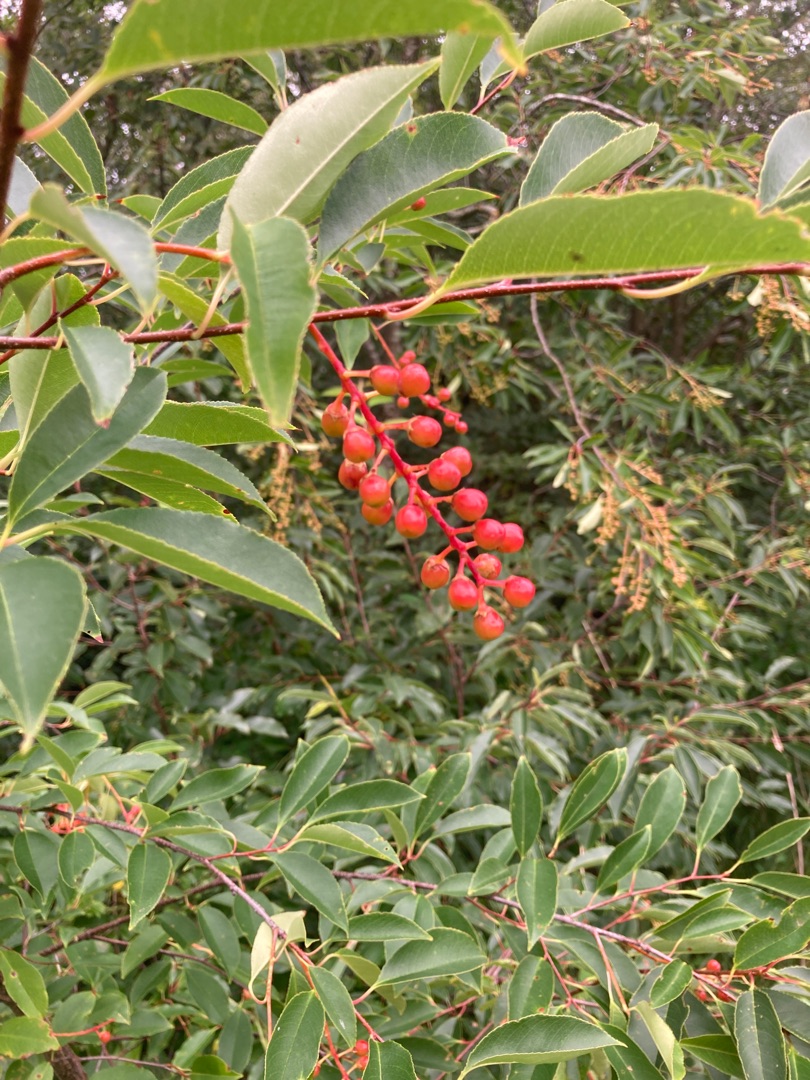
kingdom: Plantae
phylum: Tracheophyta
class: Magnoliopsida
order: Rosales
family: Rosaceae
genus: Prunus
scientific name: Prunus serotina
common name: Glansbladet hæg
